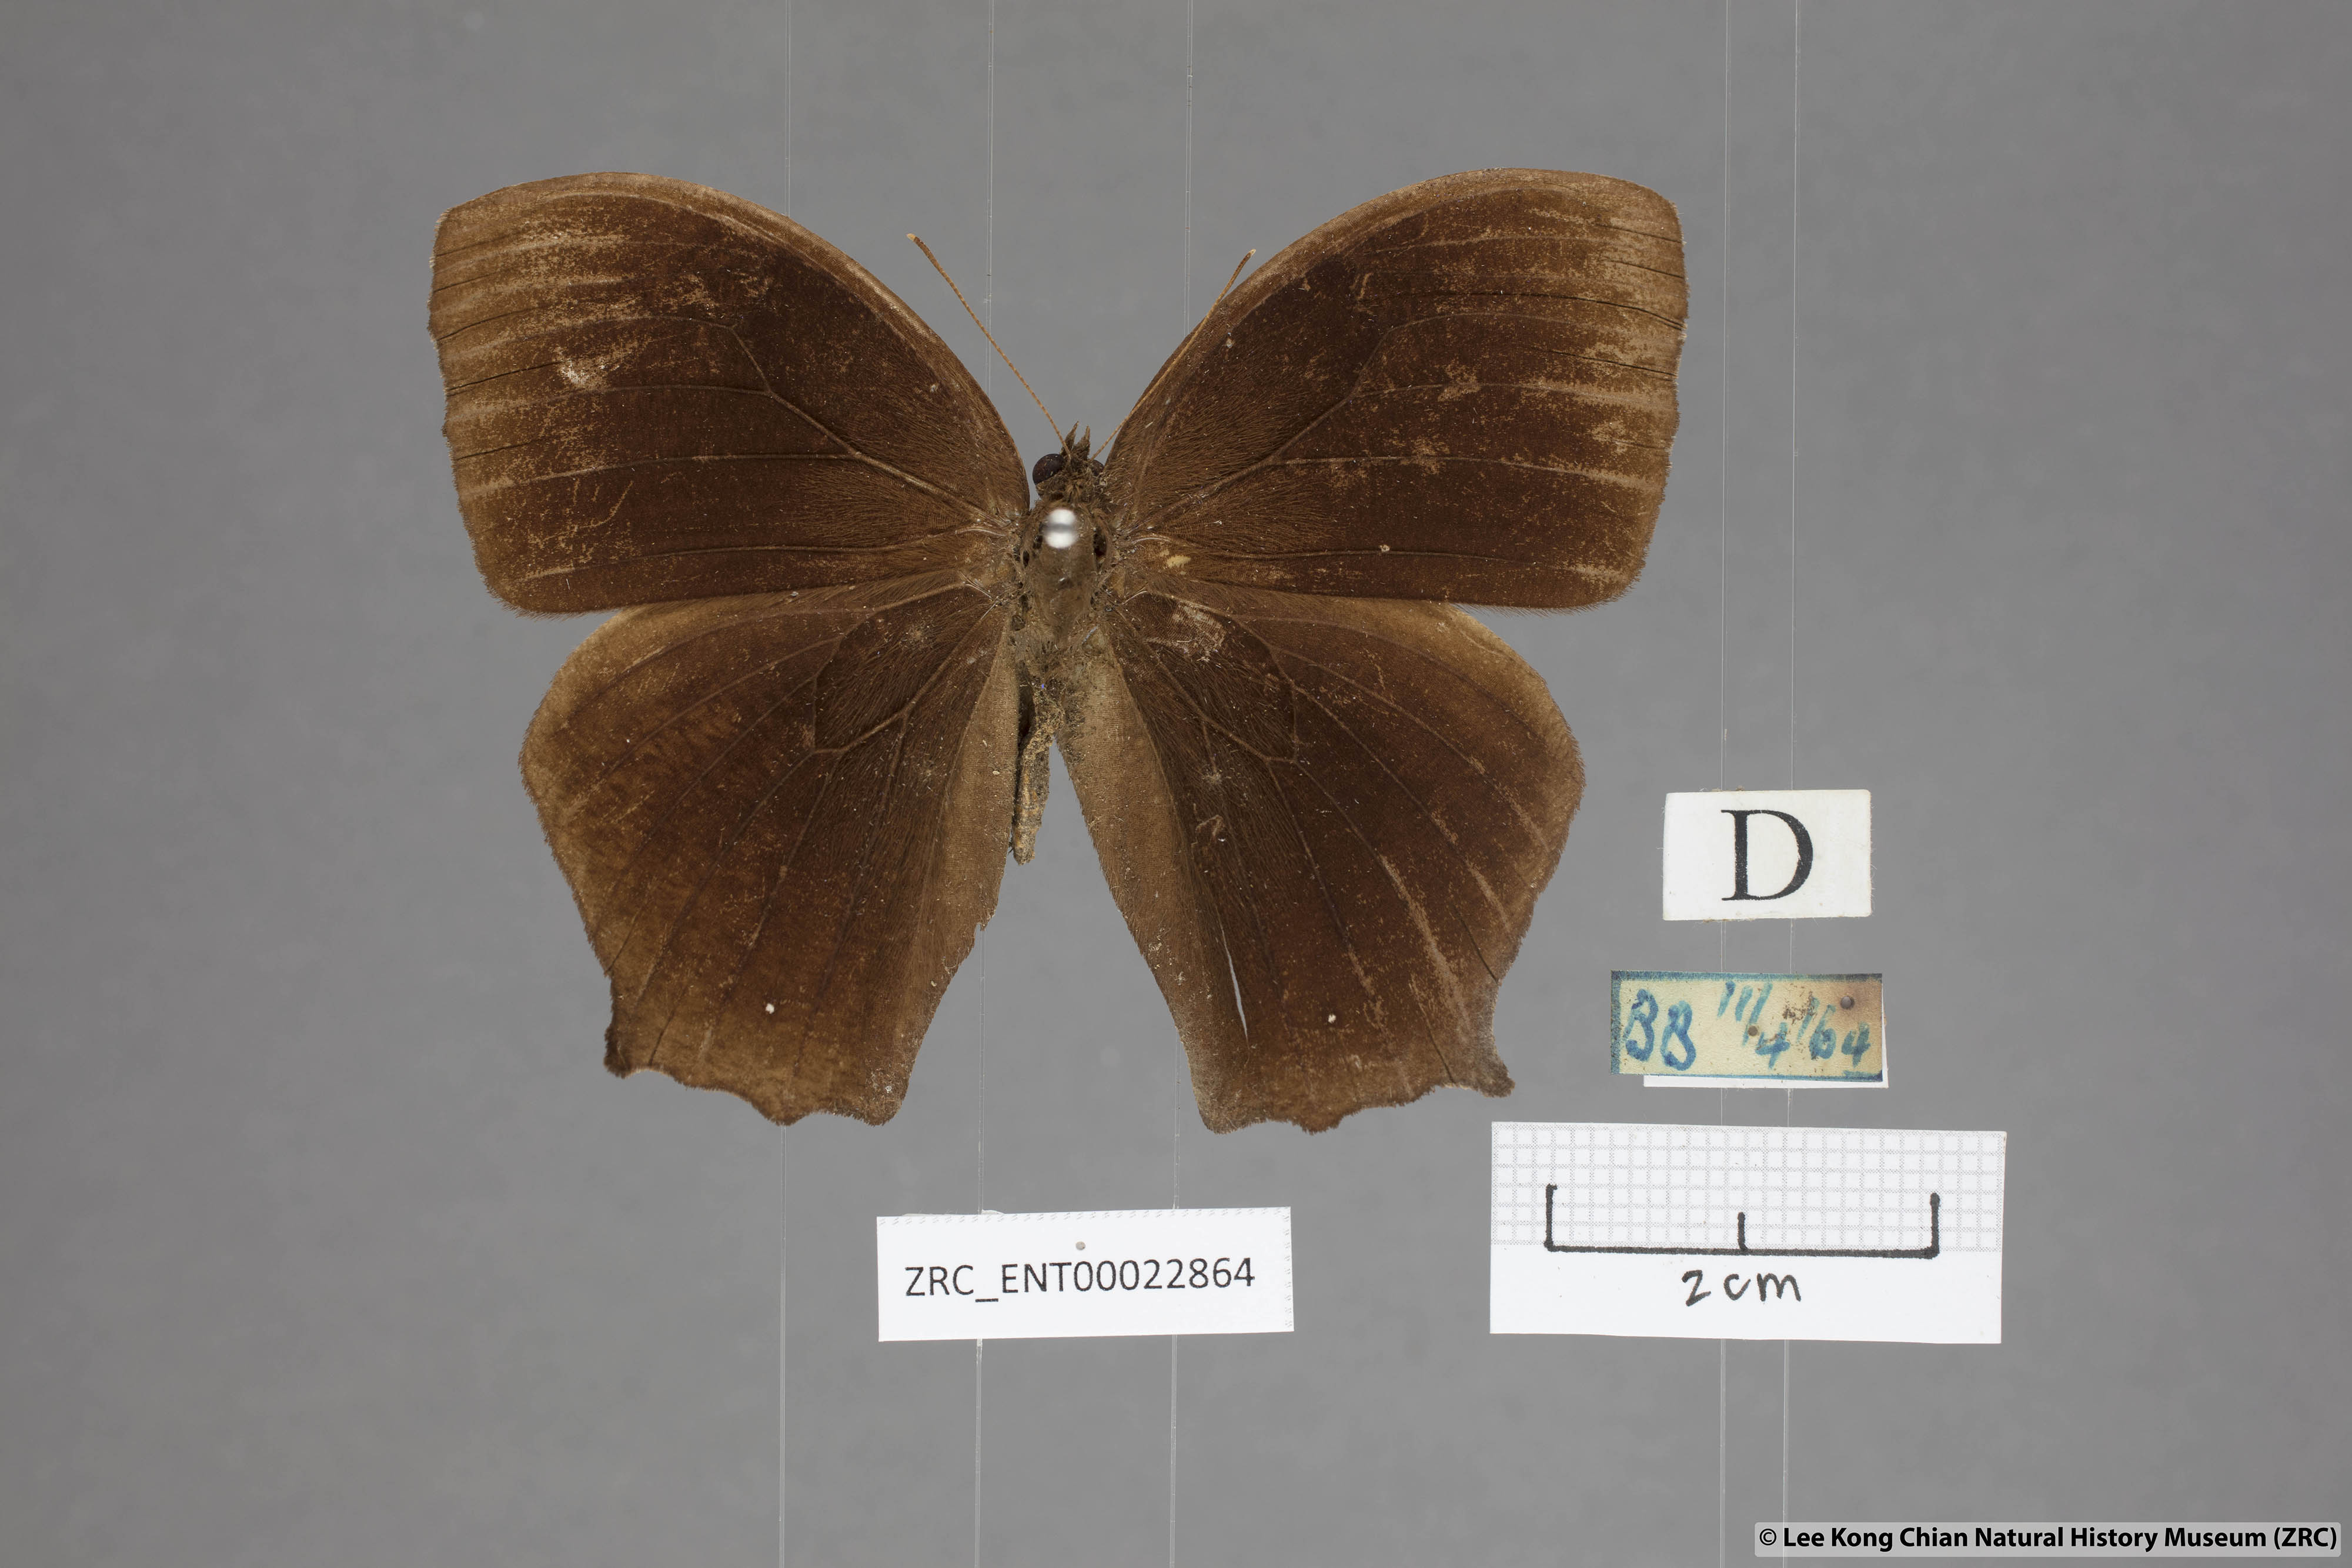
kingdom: Animalia
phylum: Arthropoda
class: Insecta
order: Lepidoptera
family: Nymphalidae
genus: Melanitis
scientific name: Melanitis phedima
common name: Dark evening brown
